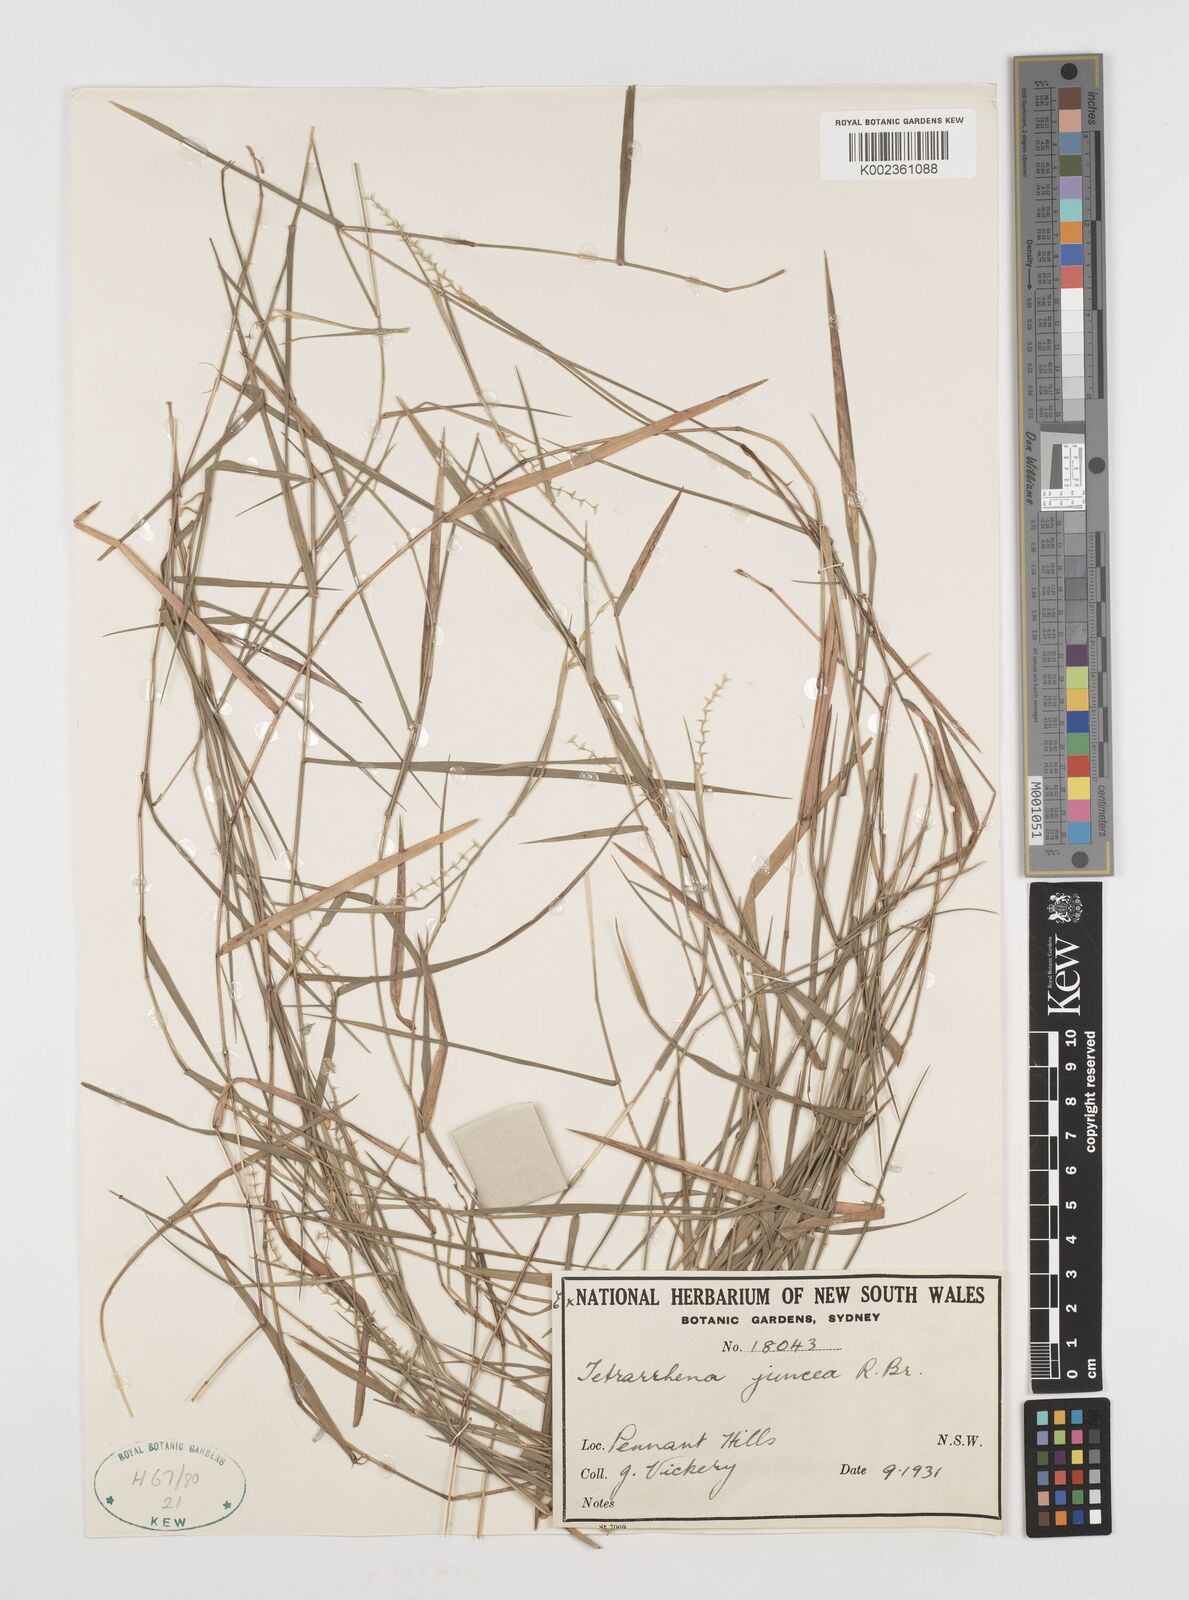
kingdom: Plantae
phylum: Tracheophyta
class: Liliopsida
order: Poales
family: Poaceae
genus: Tetrarrhena
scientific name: Tetrarrhena juncea
